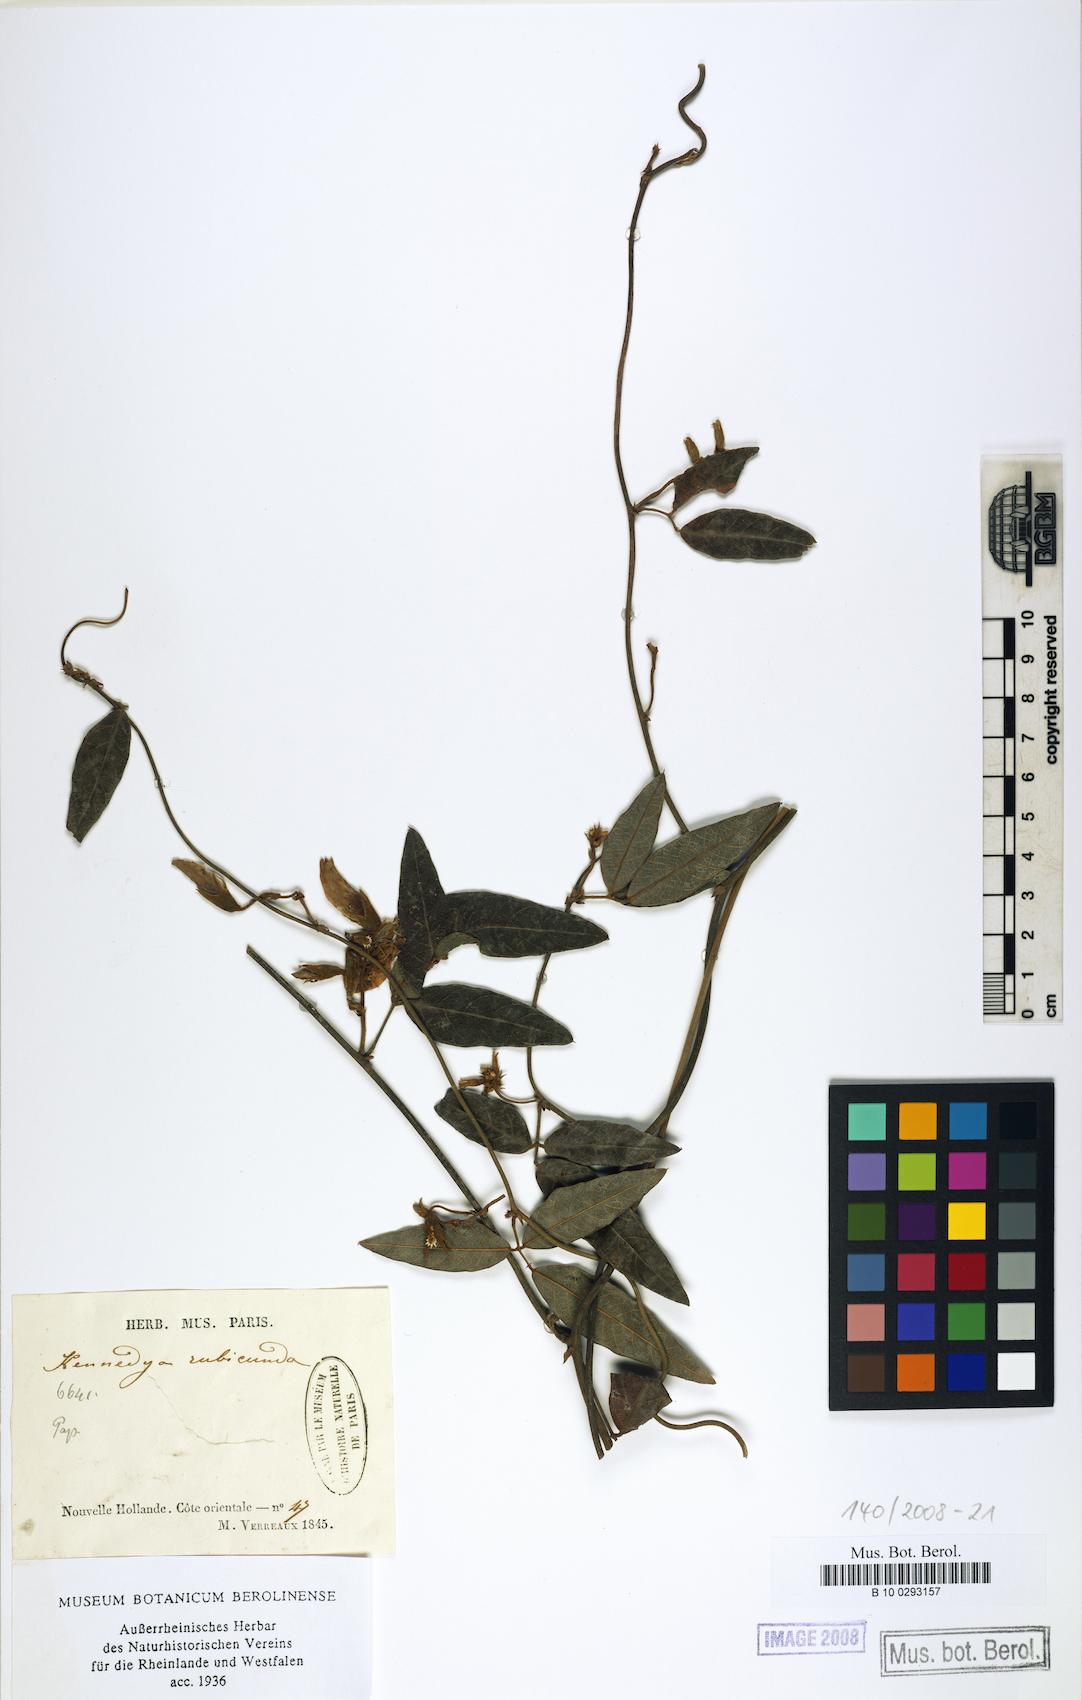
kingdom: Plantae
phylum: Tracheophyta
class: Magnoliopsida
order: Fabales
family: Fabaceae
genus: Kennedia
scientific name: Kennedia rubicunda
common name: Red kennedy-pea
